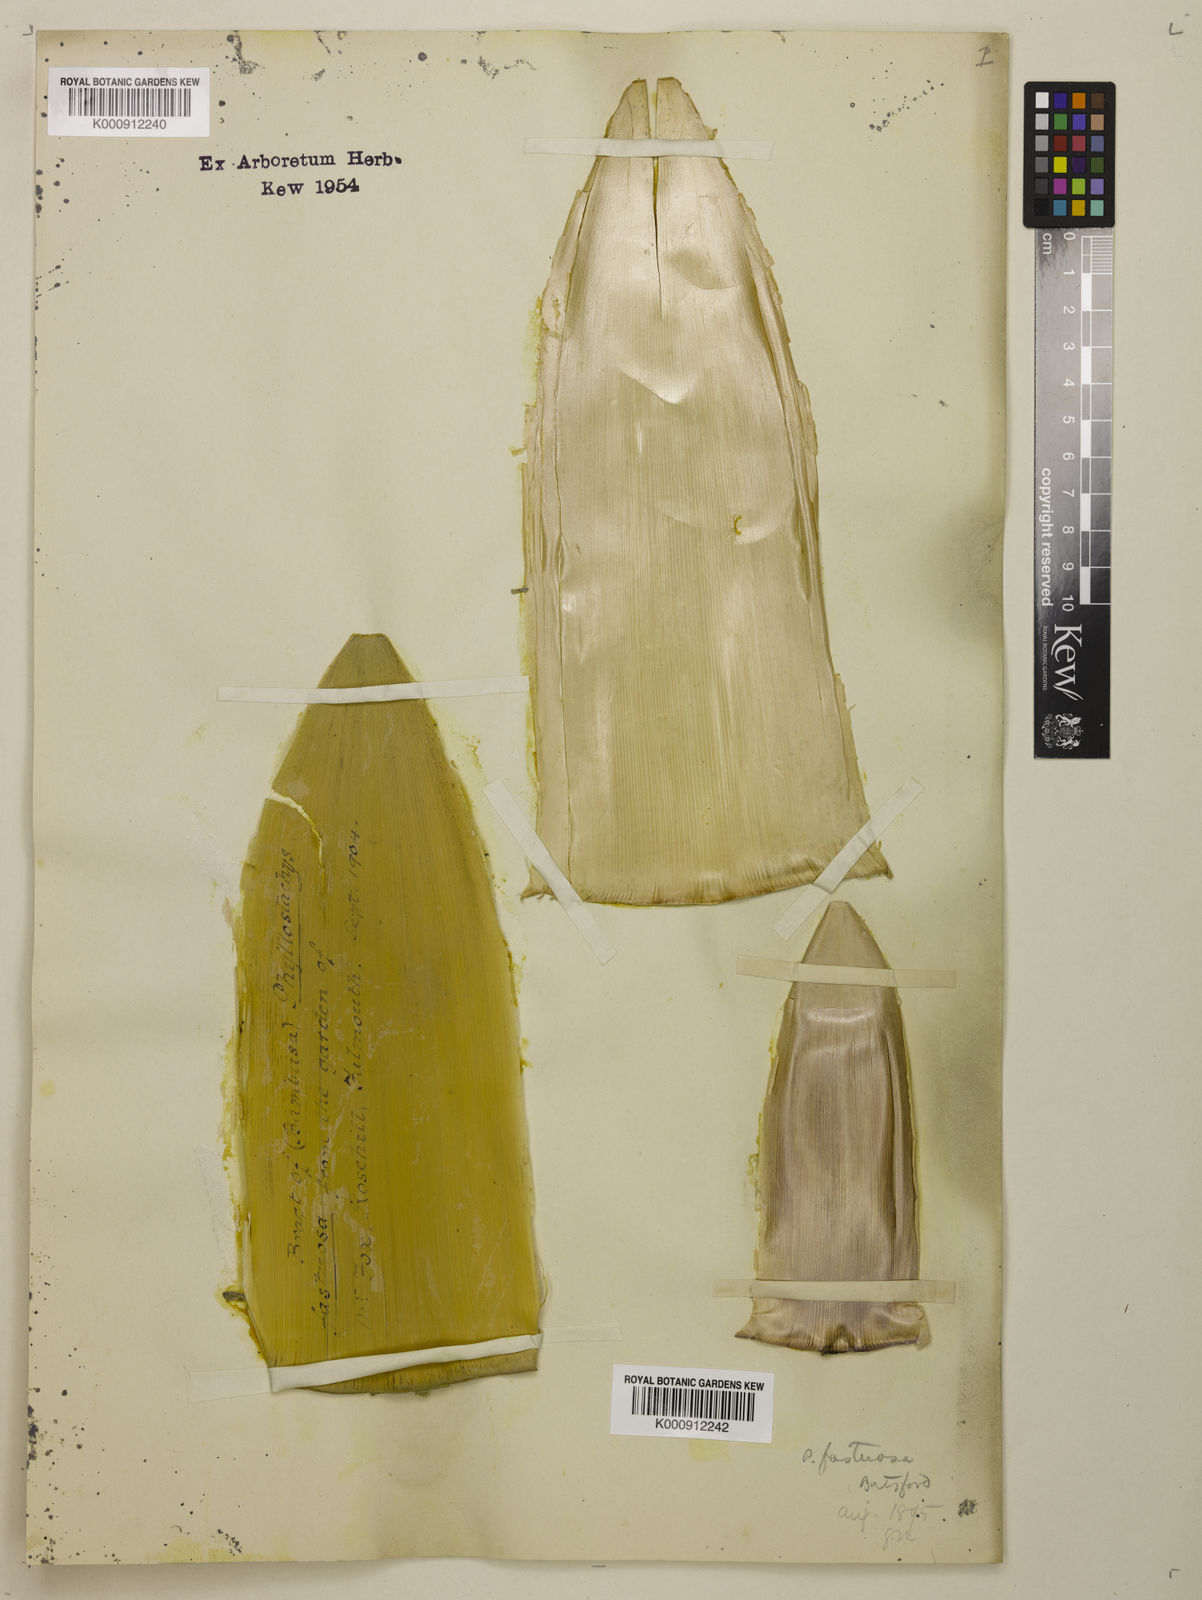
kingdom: Plantae
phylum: Tracheophyta
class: Liliopsida
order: Poales
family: Poaceae
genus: Semiarundinaria
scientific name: Semiarundinaria fastuosa
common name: Narihira bamboo
